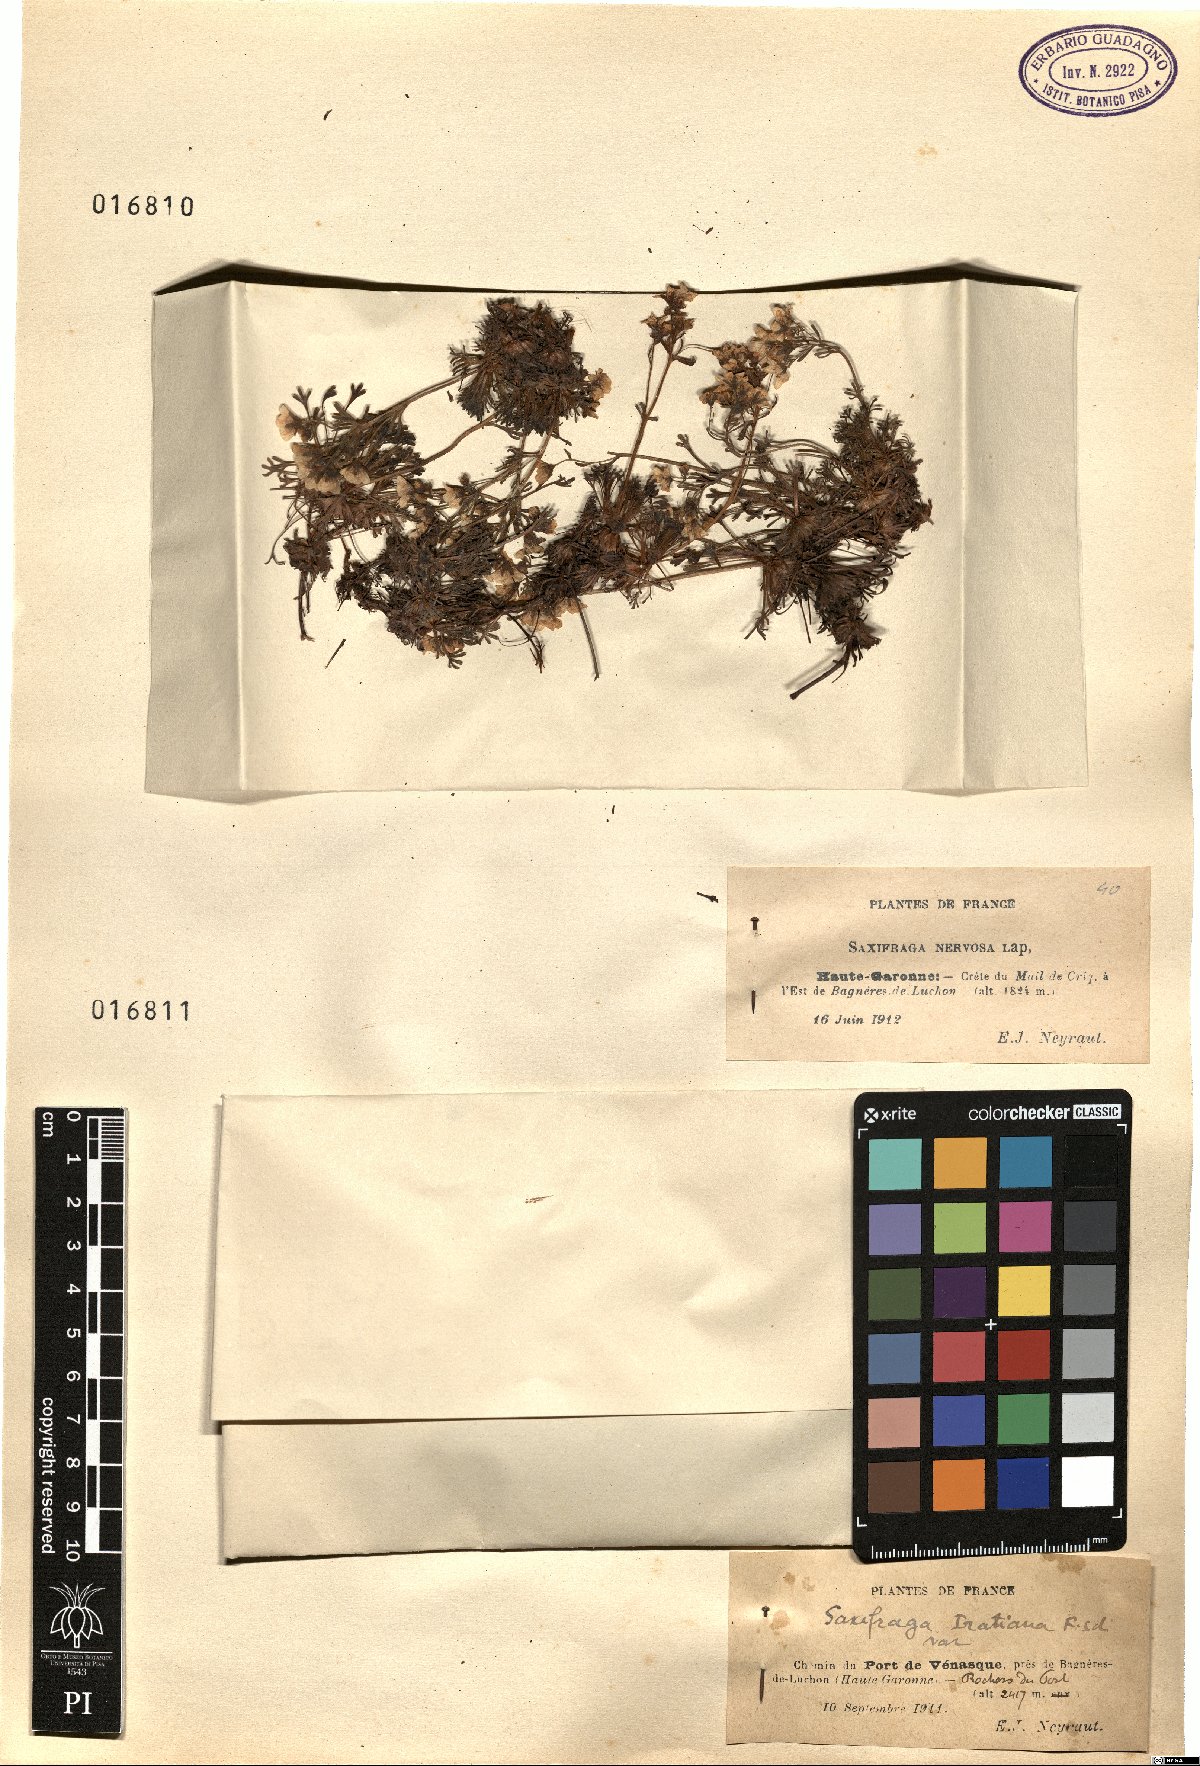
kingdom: Plantae
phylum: Tracheophyta
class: Magnoliopsida
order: Saxifragales
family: Saxifragaceae
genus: Saxifraga
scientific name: Saxifraga intricata
